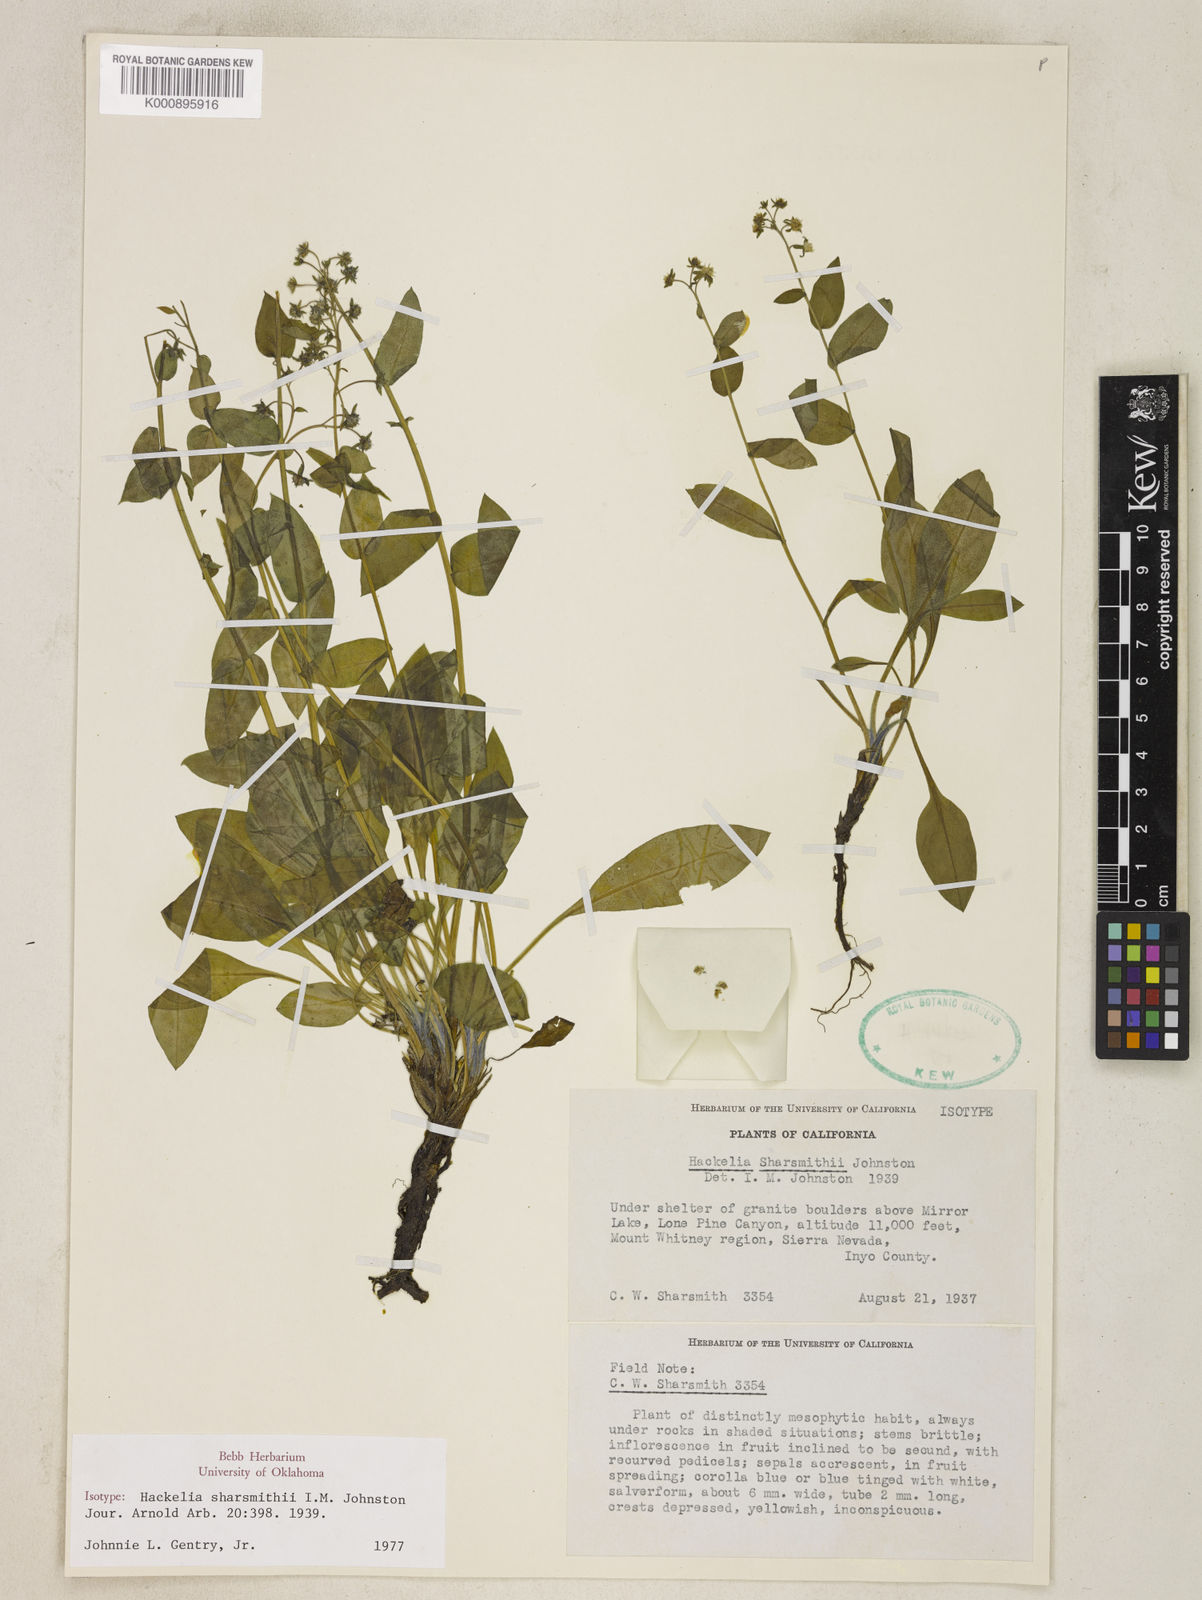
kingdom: Plantae
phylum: Tracheophyta
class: Magnoliopsida
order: Boraginales
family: Boraginaceae
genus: Hackelia
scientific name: Hackelia sharsmithii
